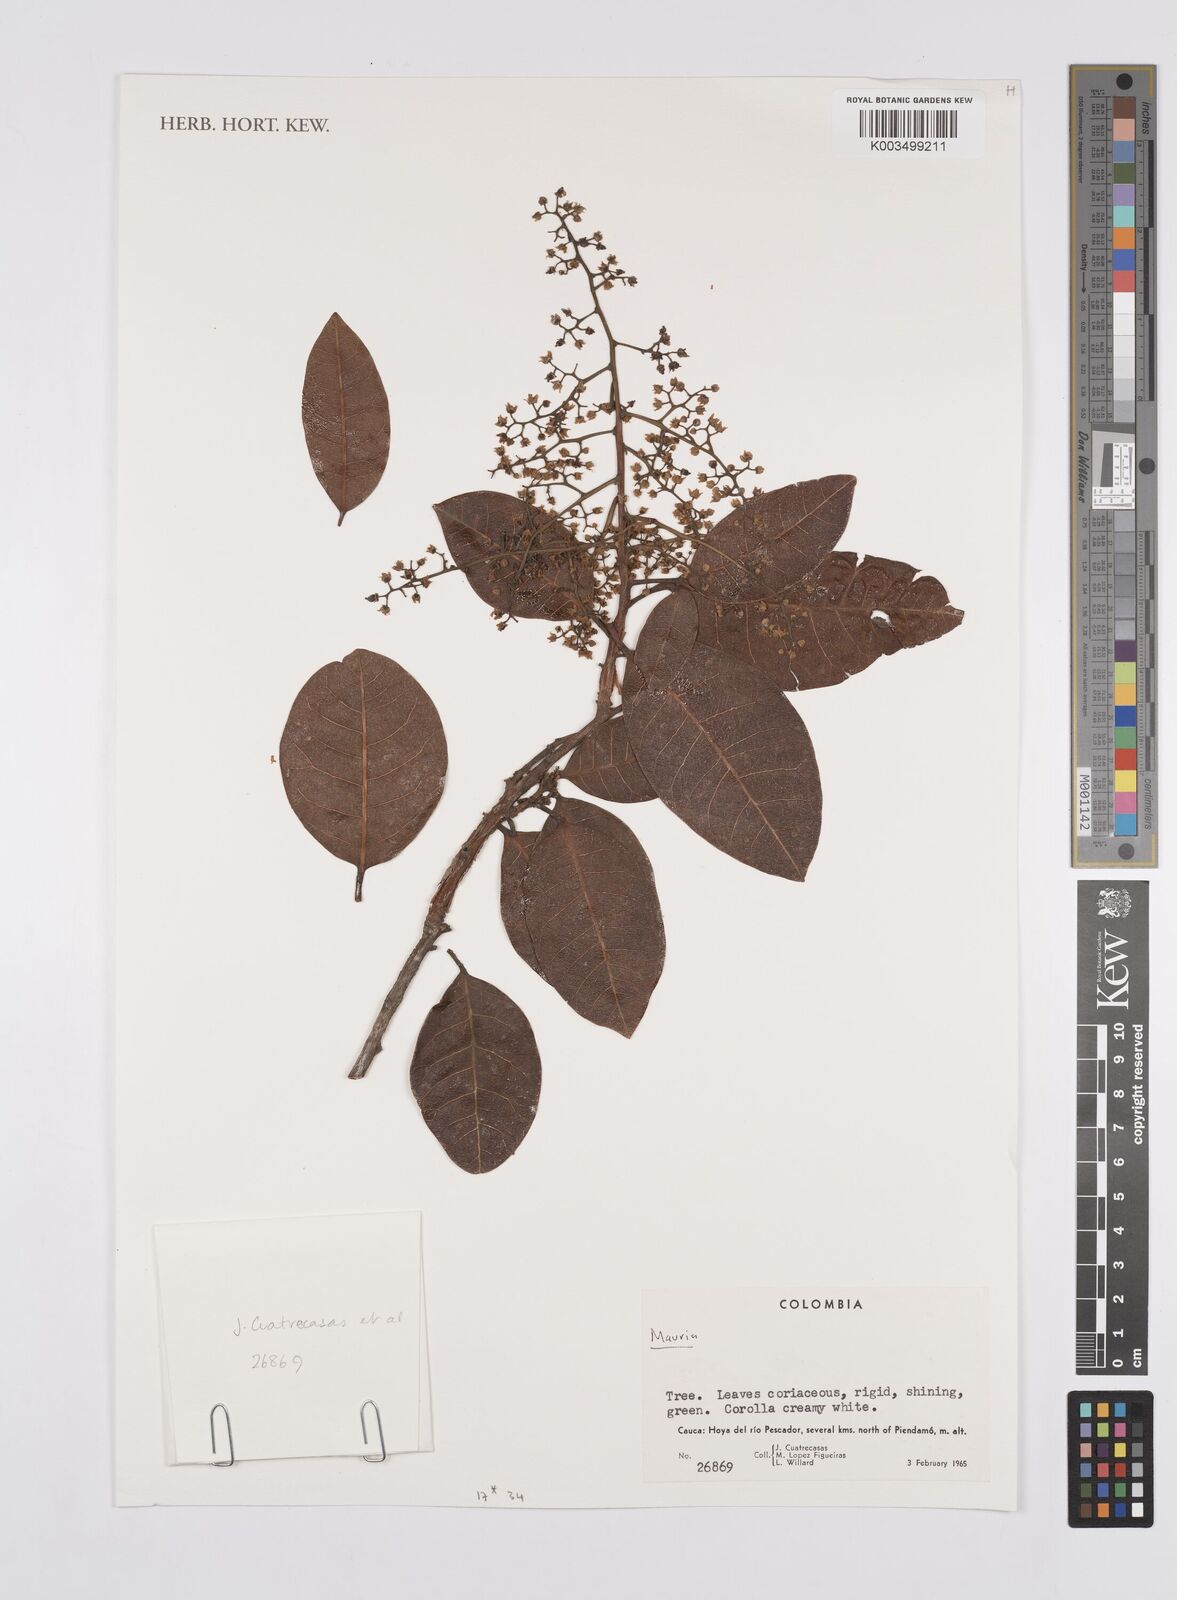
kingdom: Plantae
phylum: Tracheophyta
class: Magnoliopsida
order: Sapindales
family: Anacardiaceae
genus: Mauria
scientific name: Mauria
